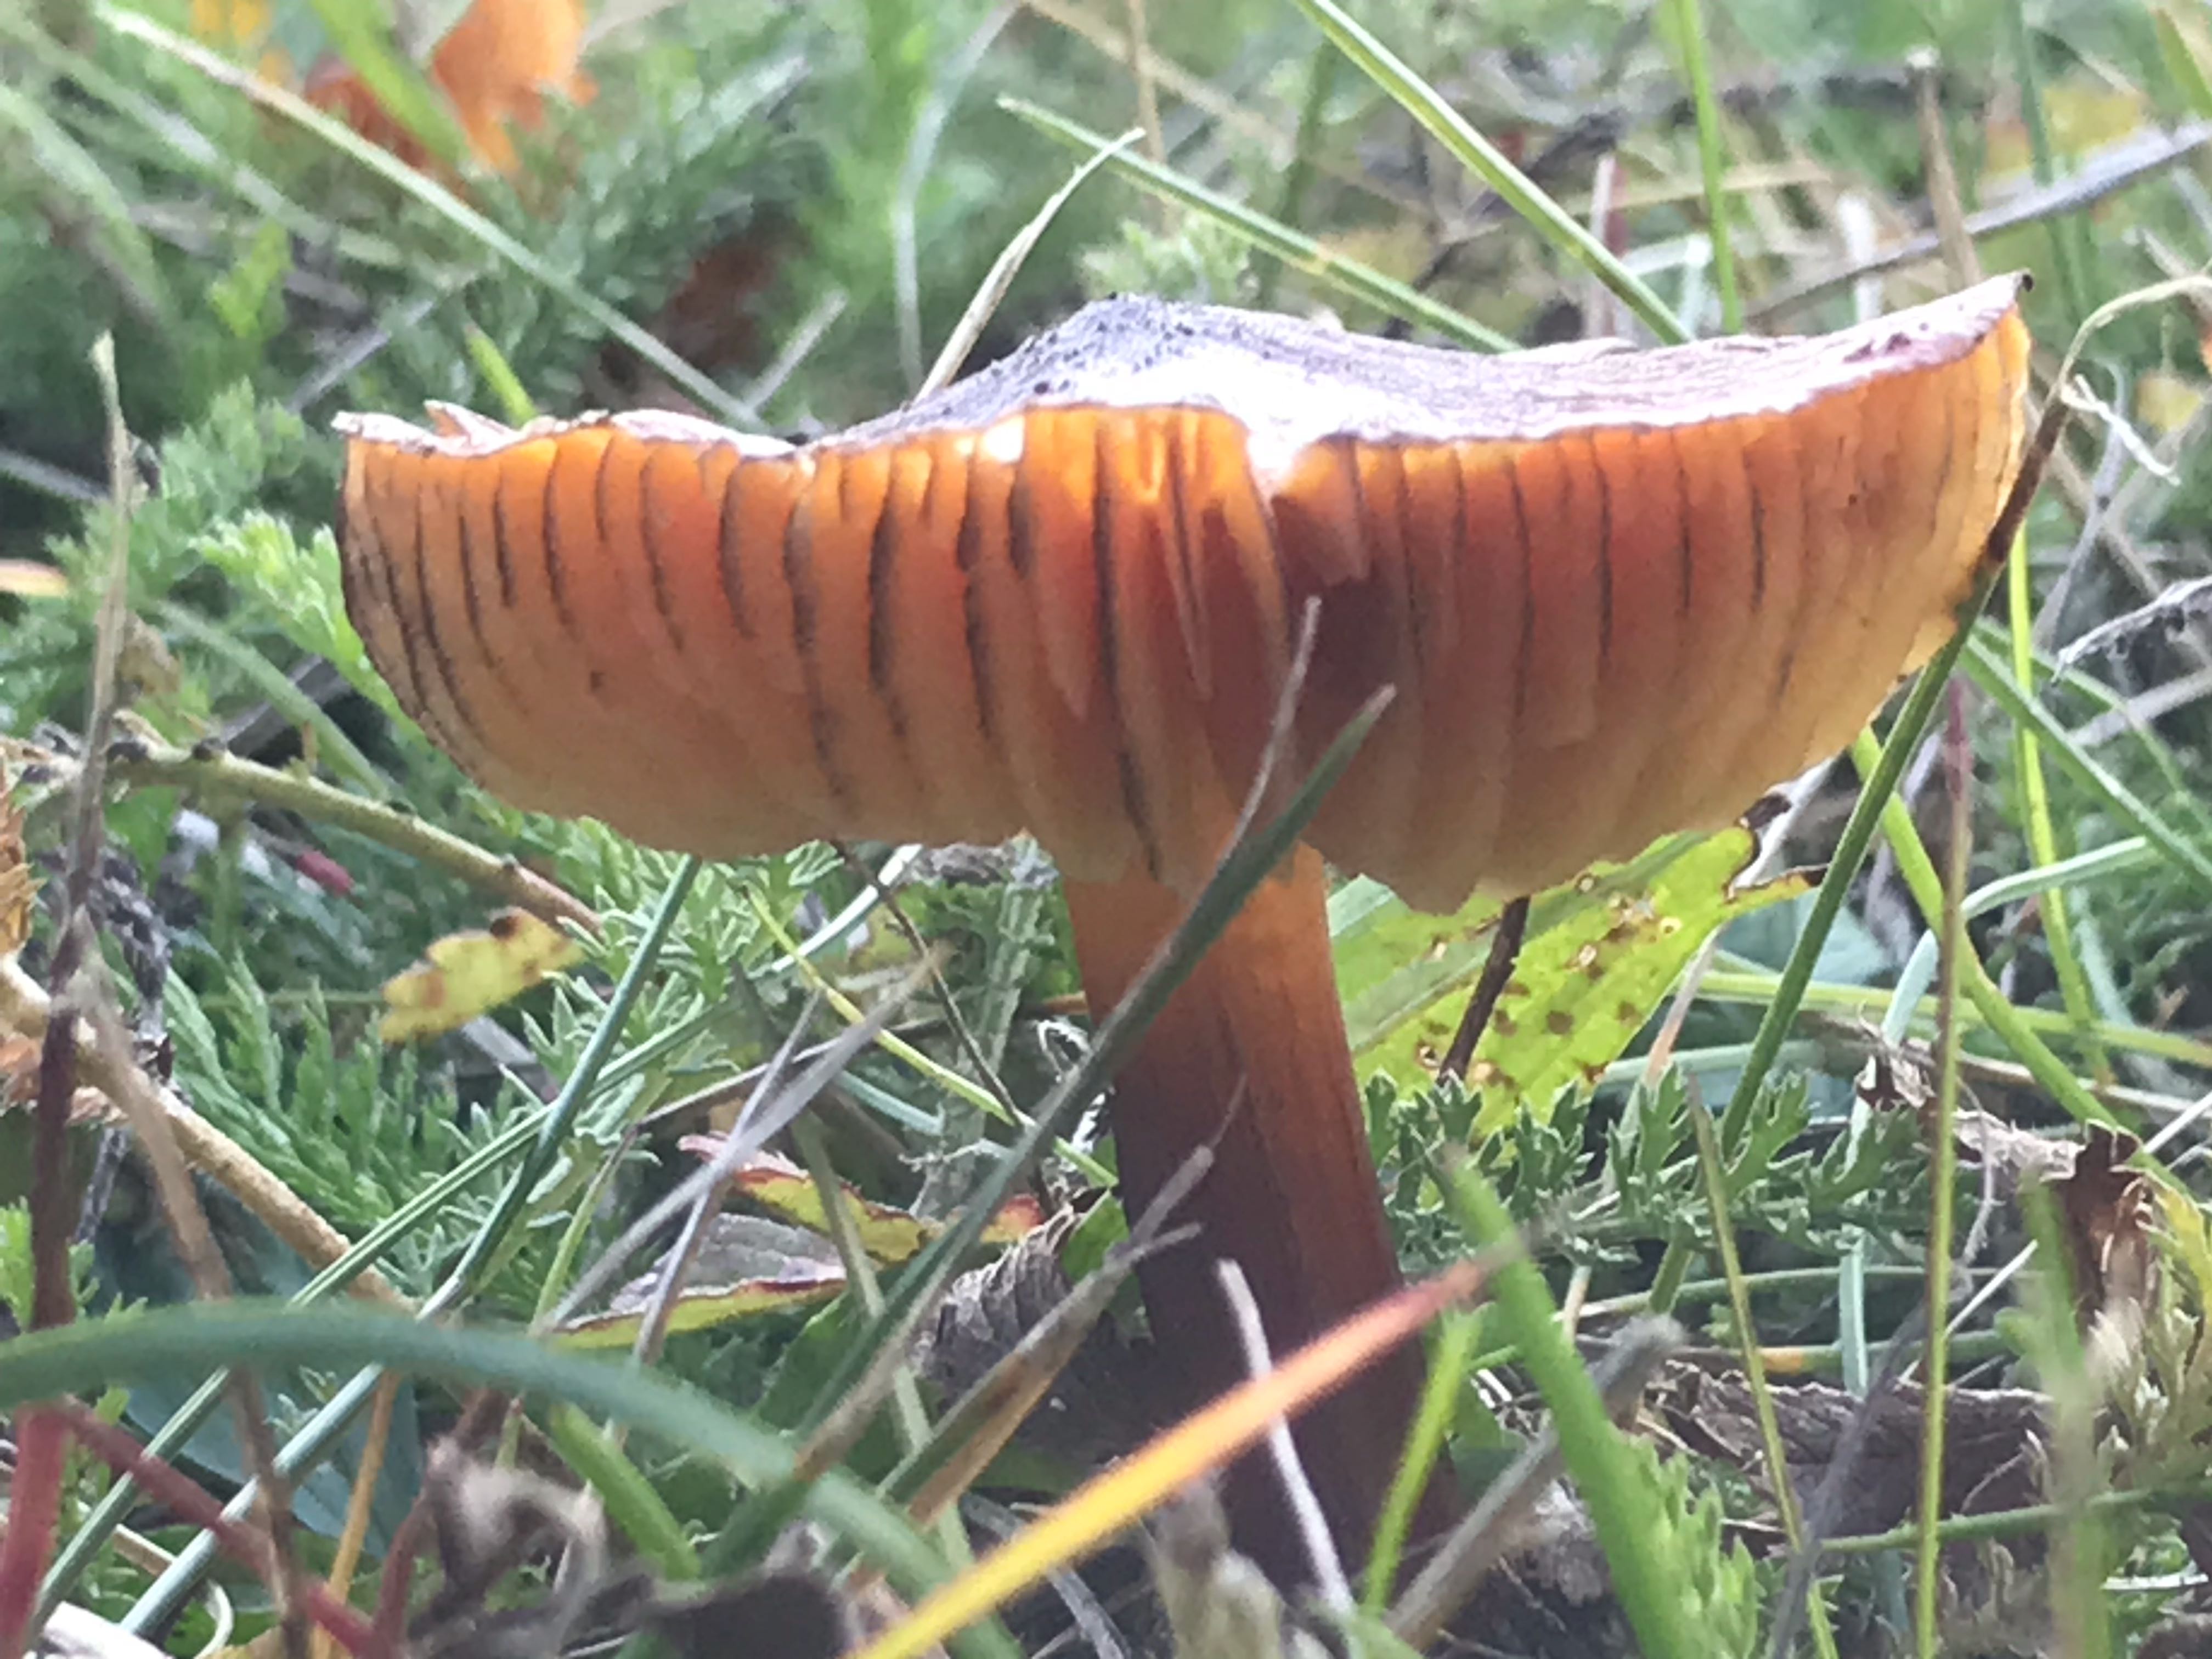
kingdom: Fungi
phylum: Basidiomycota
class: Agaricomycetes
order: Agaricales
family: Hygrophoraceae
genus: Hygrocybe
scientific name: Hygrocybe conica
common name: kegle-vokshat
